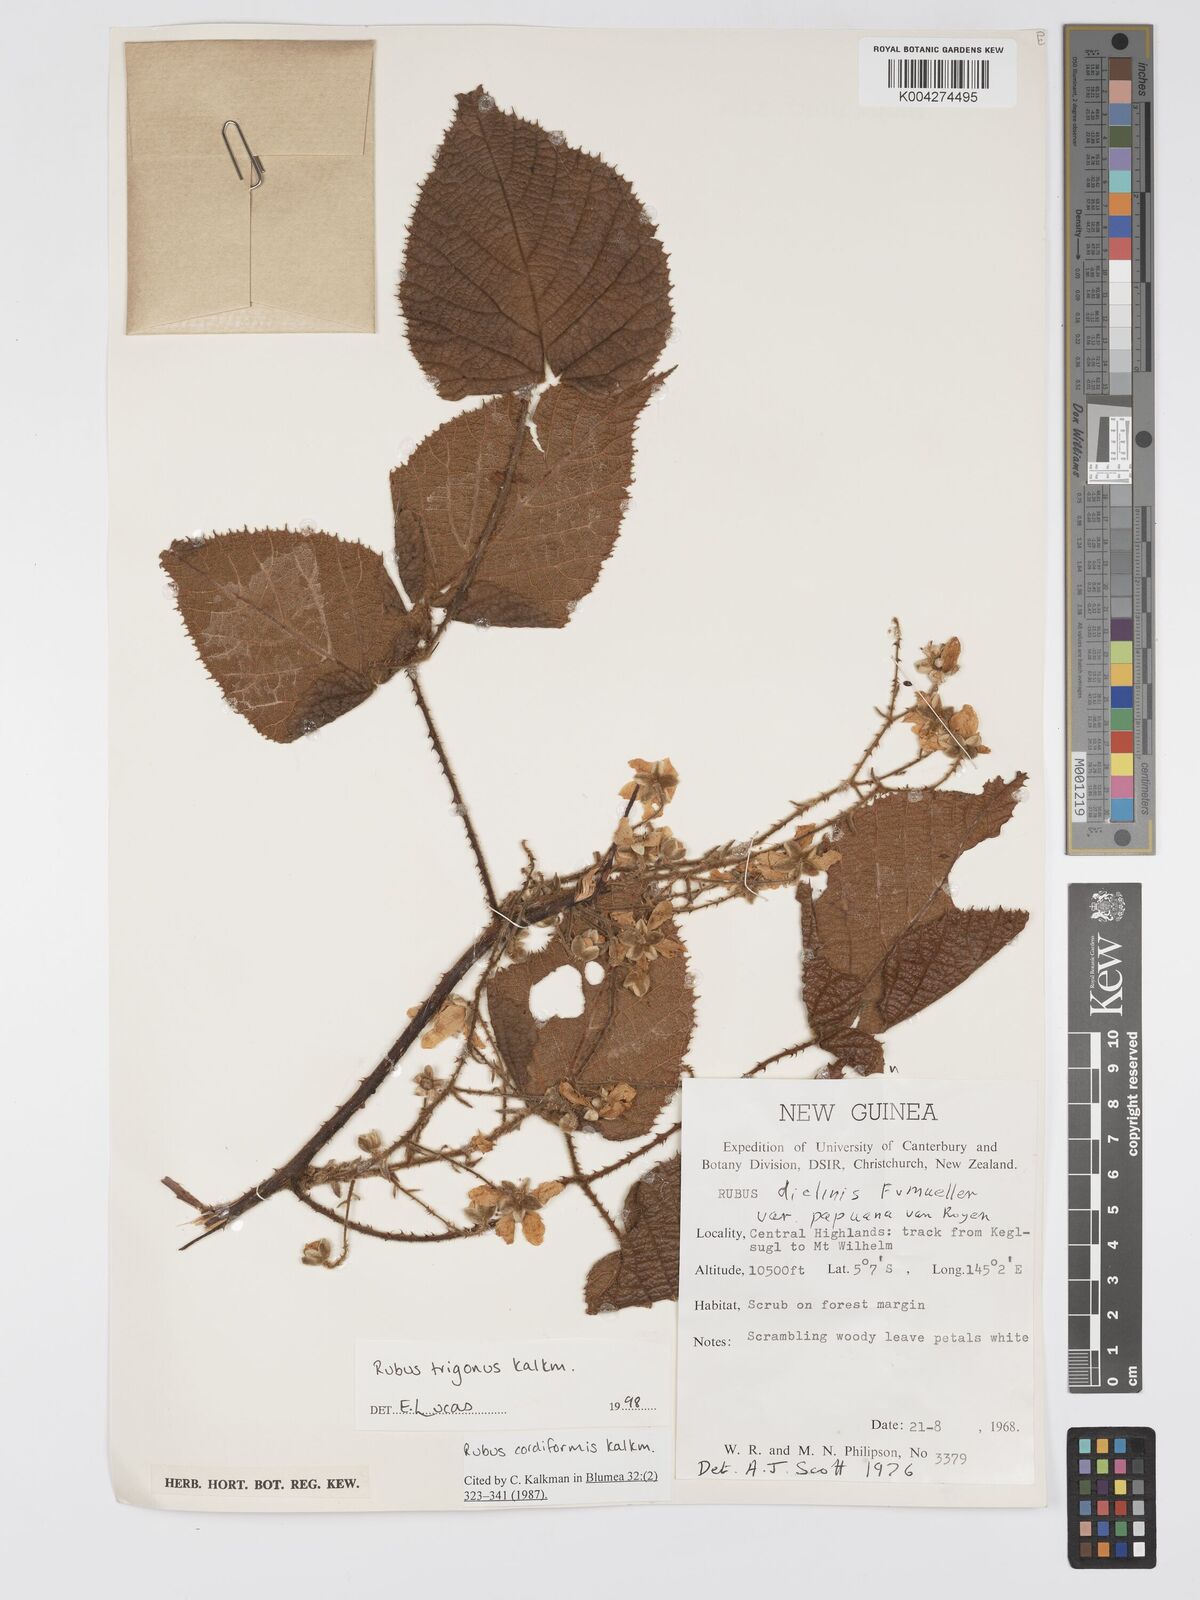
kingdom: Plantae
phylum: Tracheophyta
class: Magnoliopsida
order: Rosales
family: Rosaceae
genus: Rubus
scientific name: Rubus trigonus
